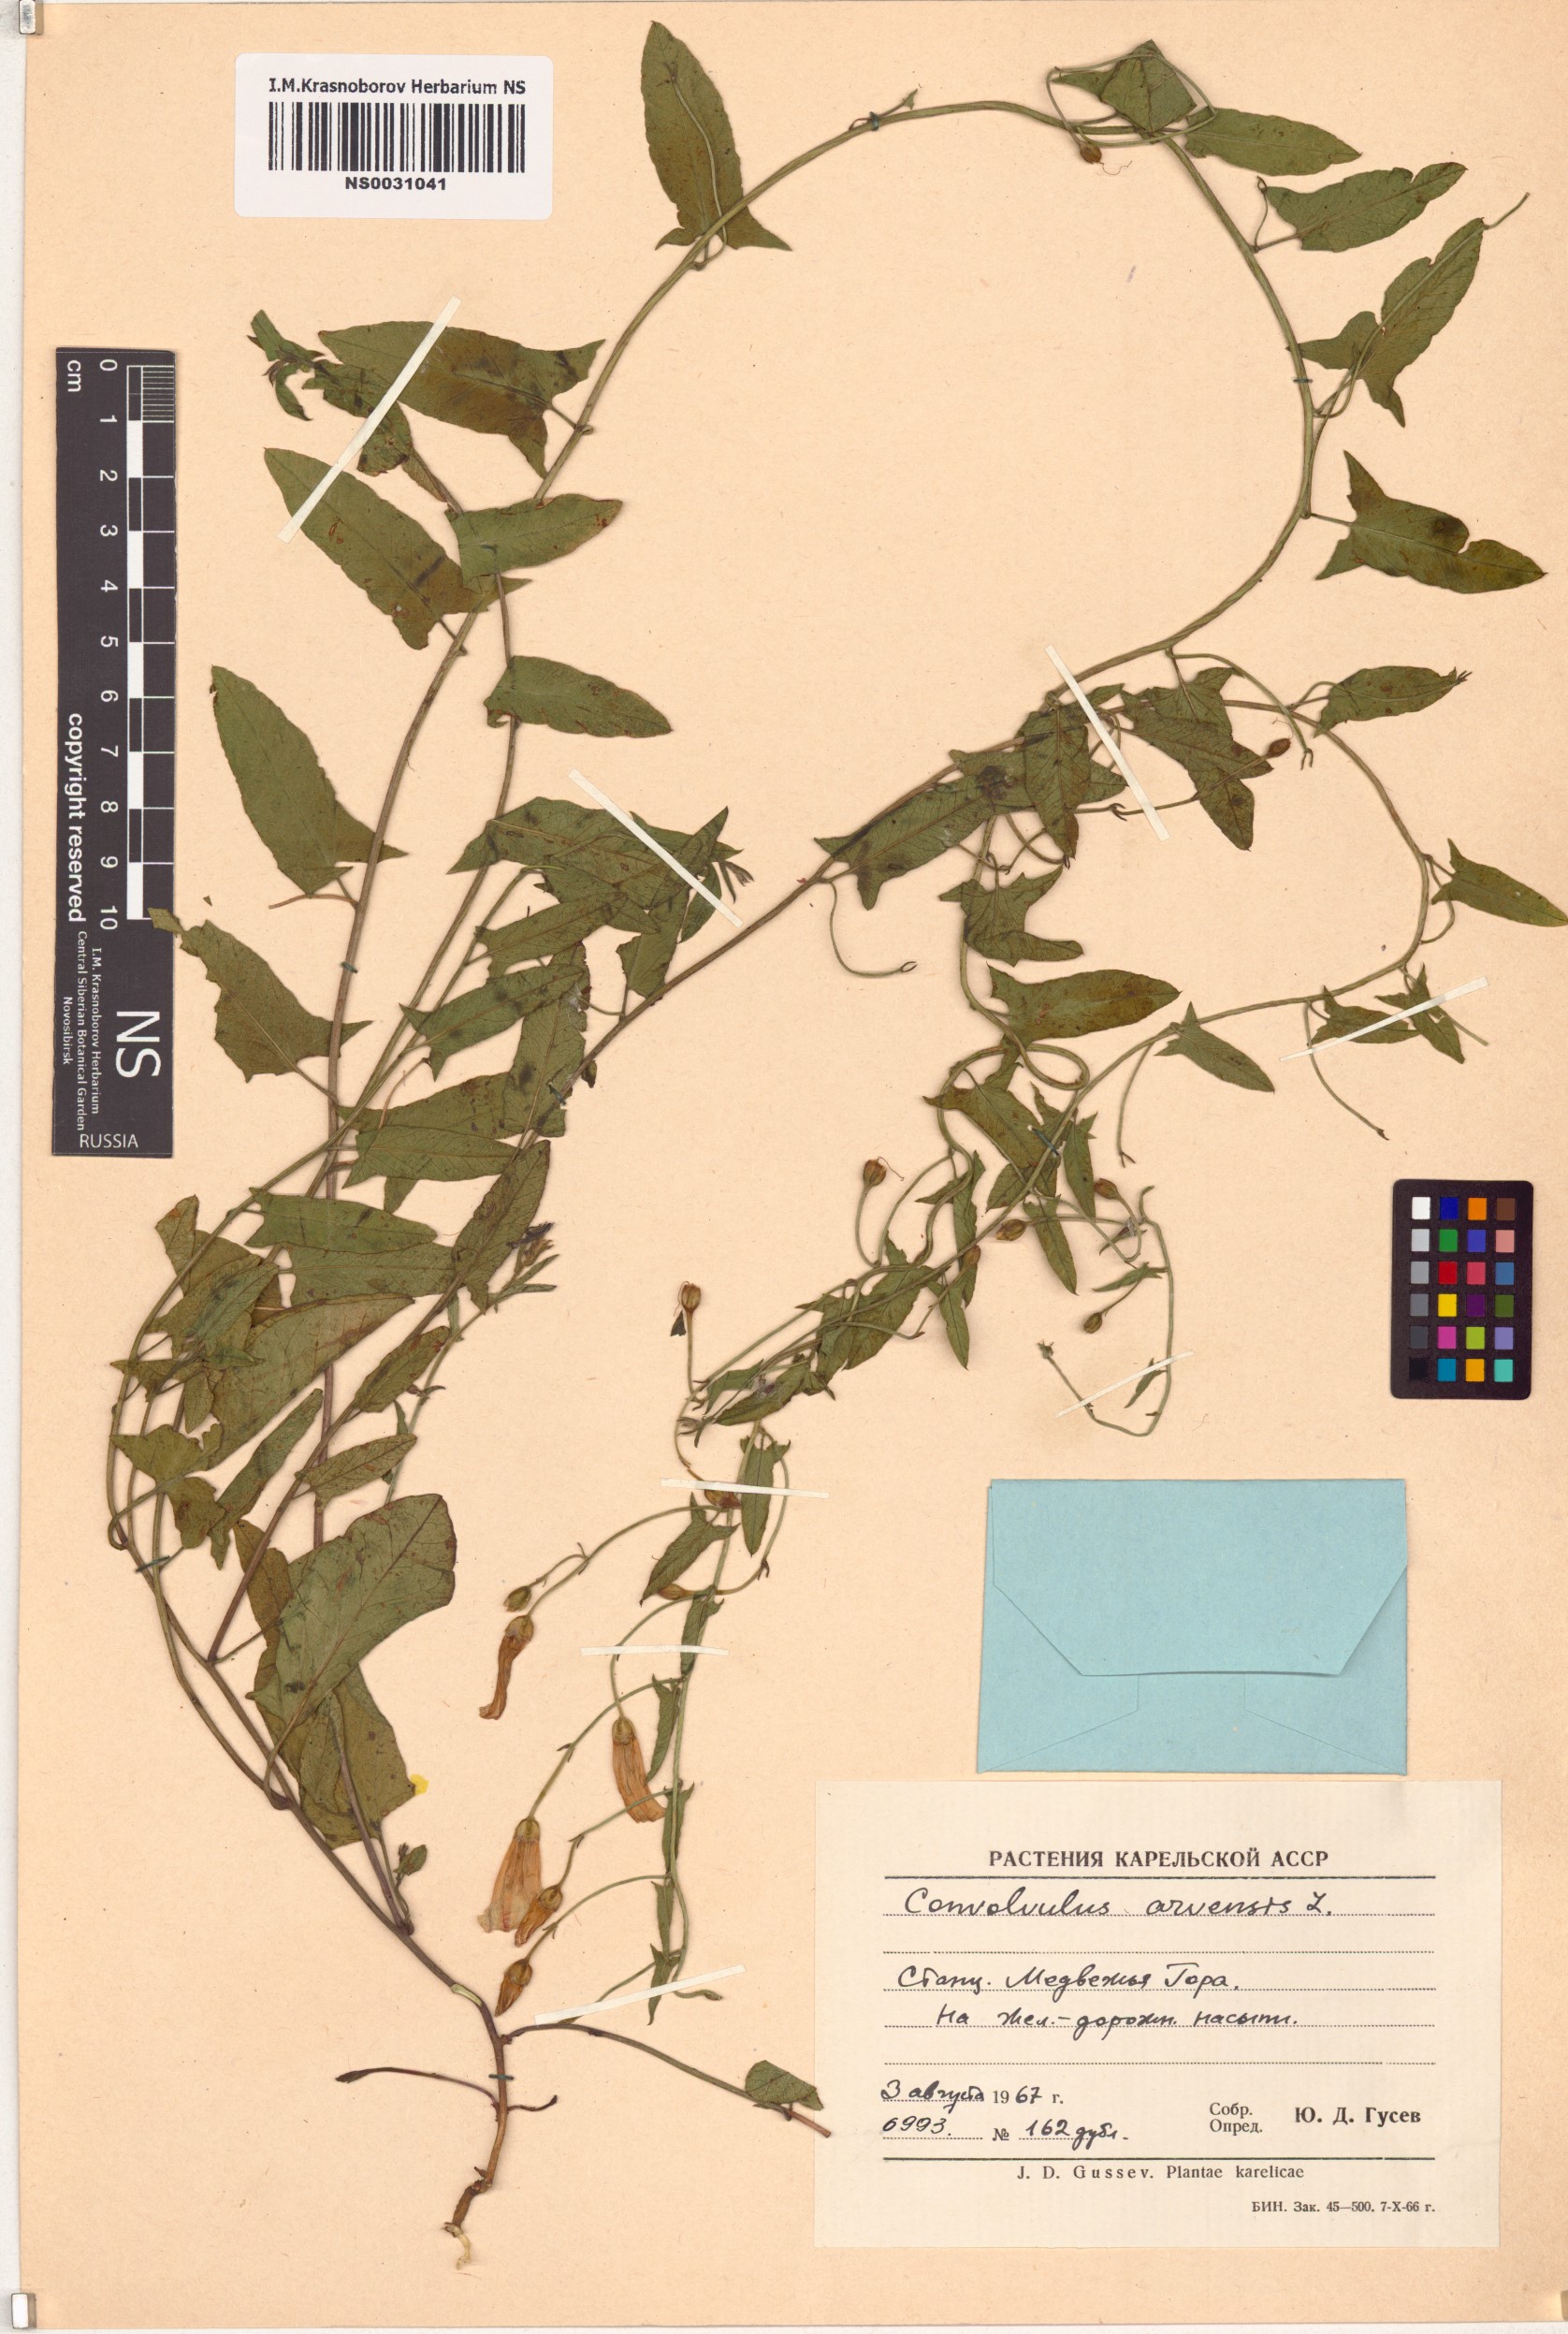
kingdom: Plantae
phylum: Tracheophyta
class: Magnoliopsida
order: Solanales
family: Convolvulaceae
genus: Convolvulus
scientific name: Convolvulus arvensis
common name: Field bindweed
